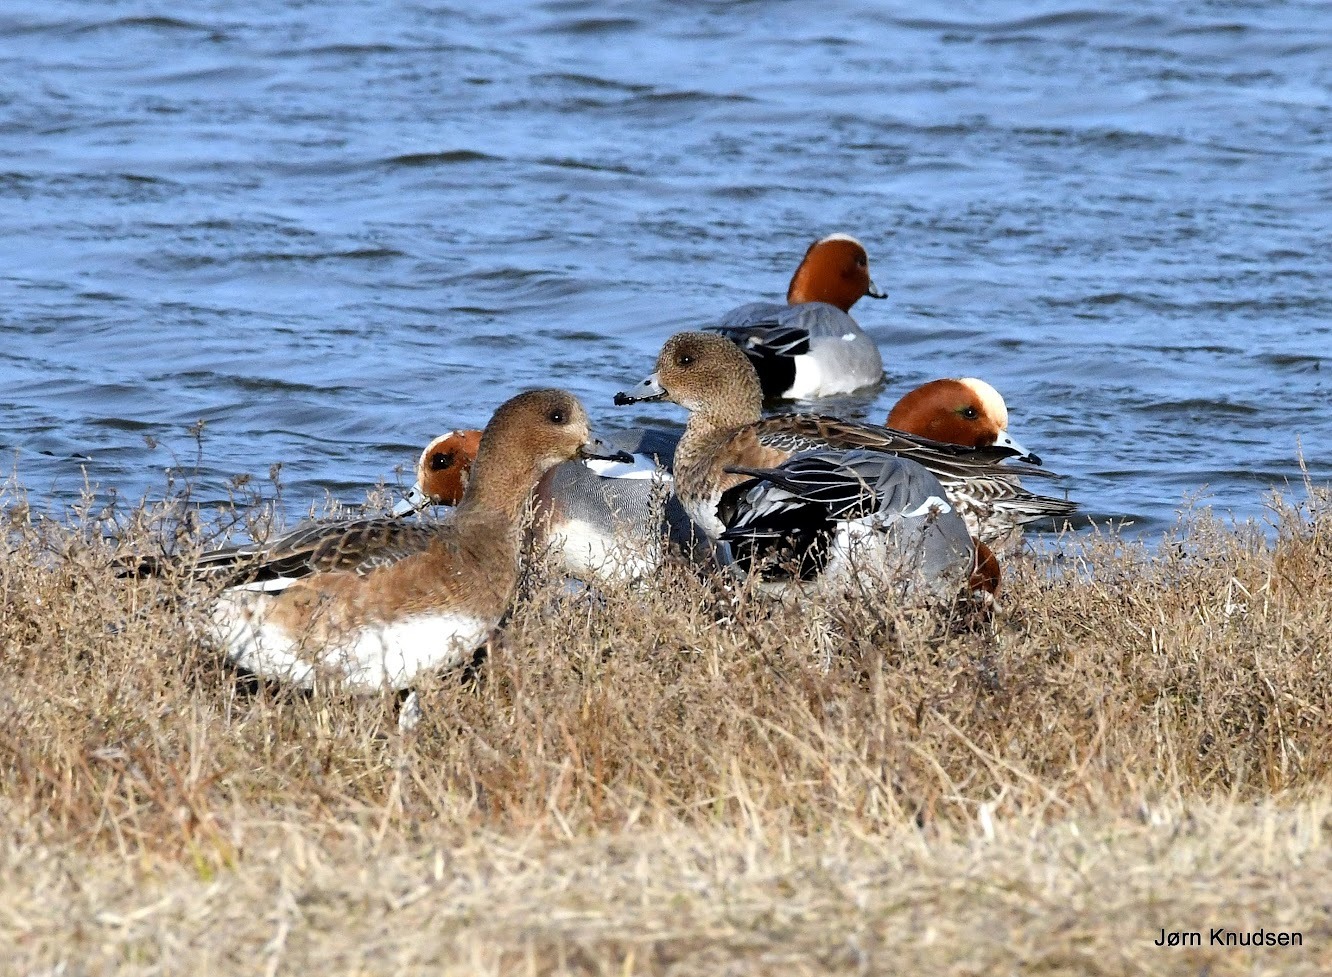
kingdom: Animalia
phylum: Chordata
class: Aves
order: Anseriformes
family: Anatidae
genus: Mareca
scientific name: Mareca penelope
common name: Pibeand
